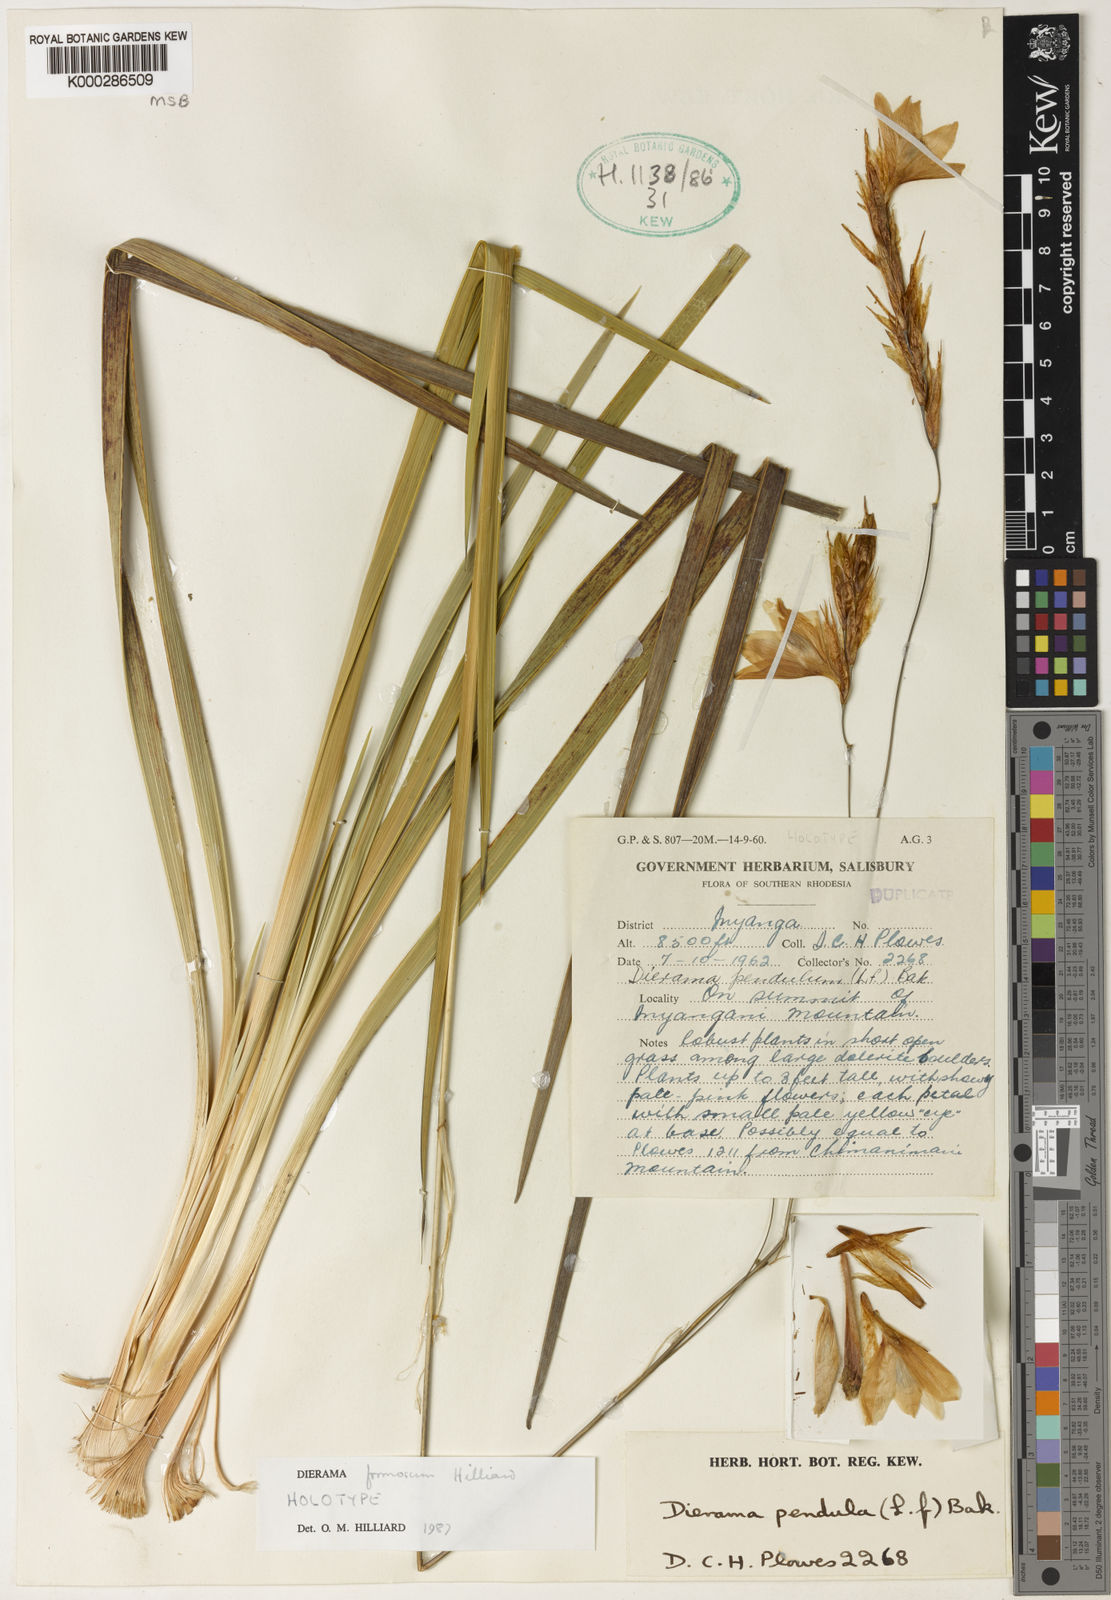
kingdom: Plantae
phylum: Tracheophyta
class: Liliopsida
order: Asparagales
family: Iridaceae
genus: Dierama
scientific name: Dierama formosum
